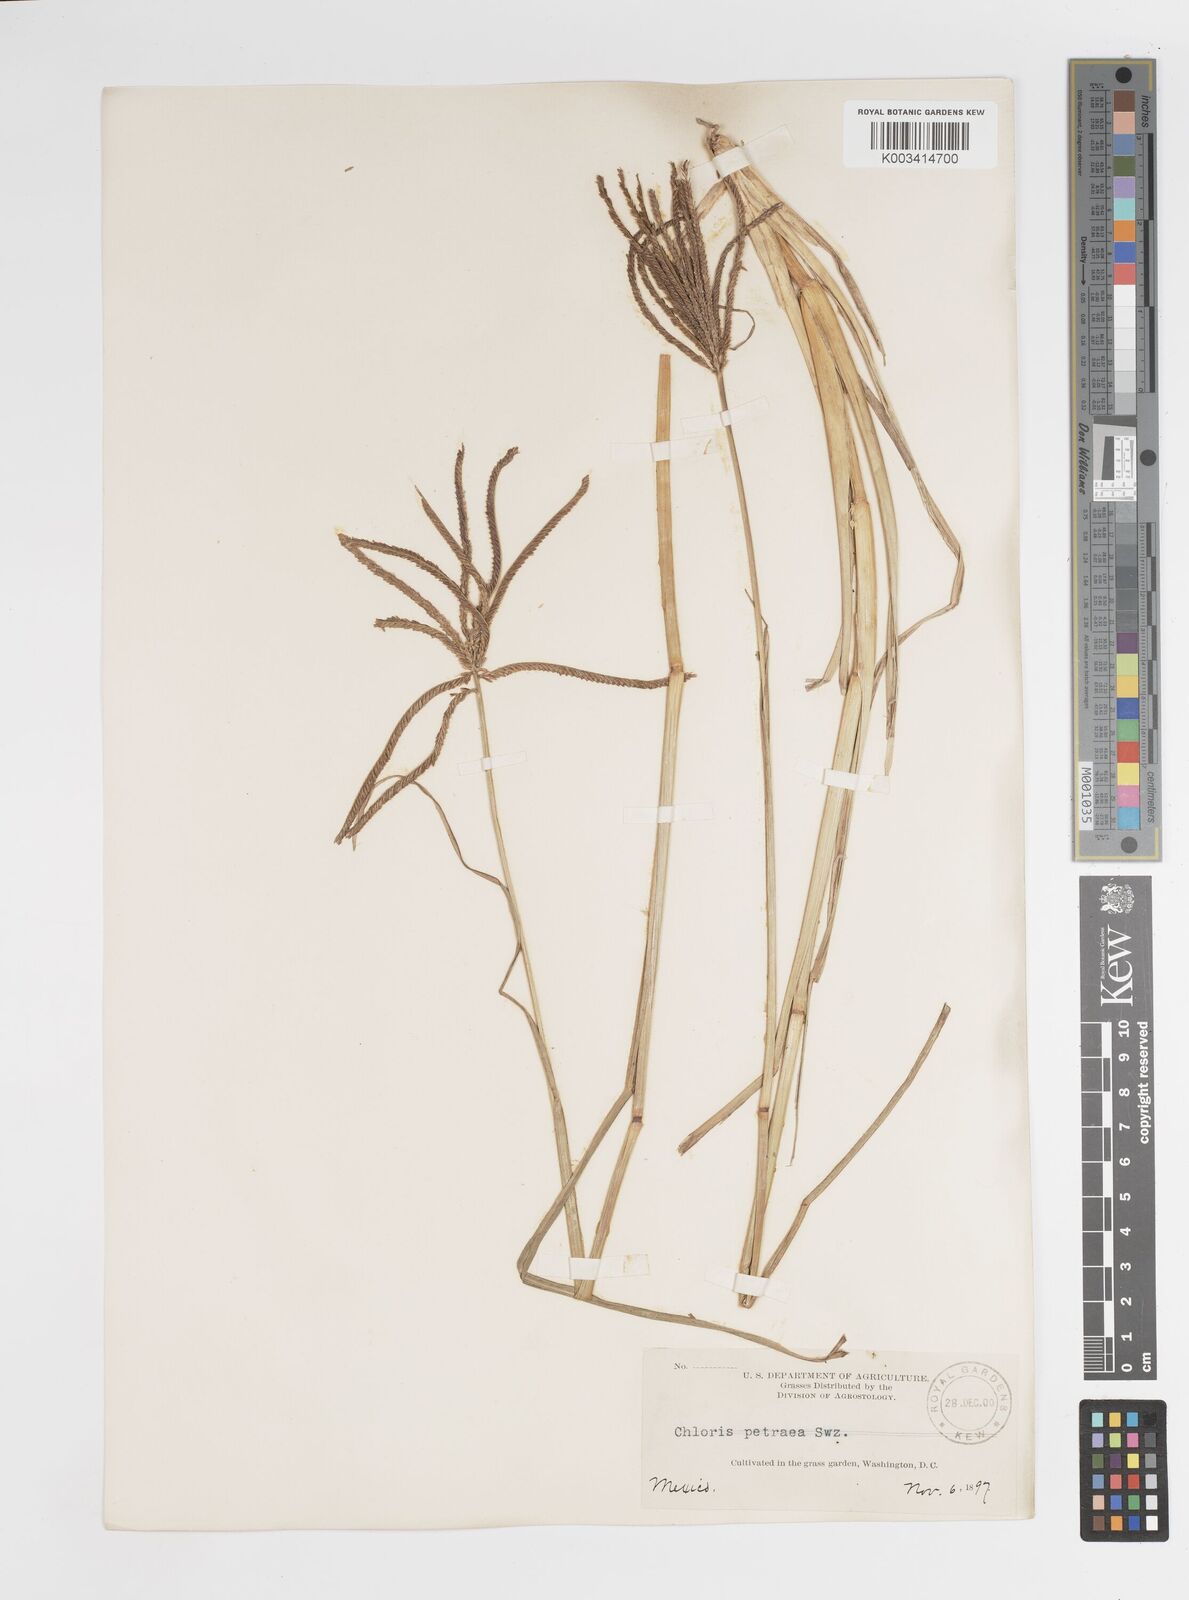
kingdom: Plantae
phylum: Tracheophyta
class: Liliopsida
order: Poales
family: Poaceae
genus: Chloris
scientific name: Chloris submutica
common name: Mexican windmill grass
